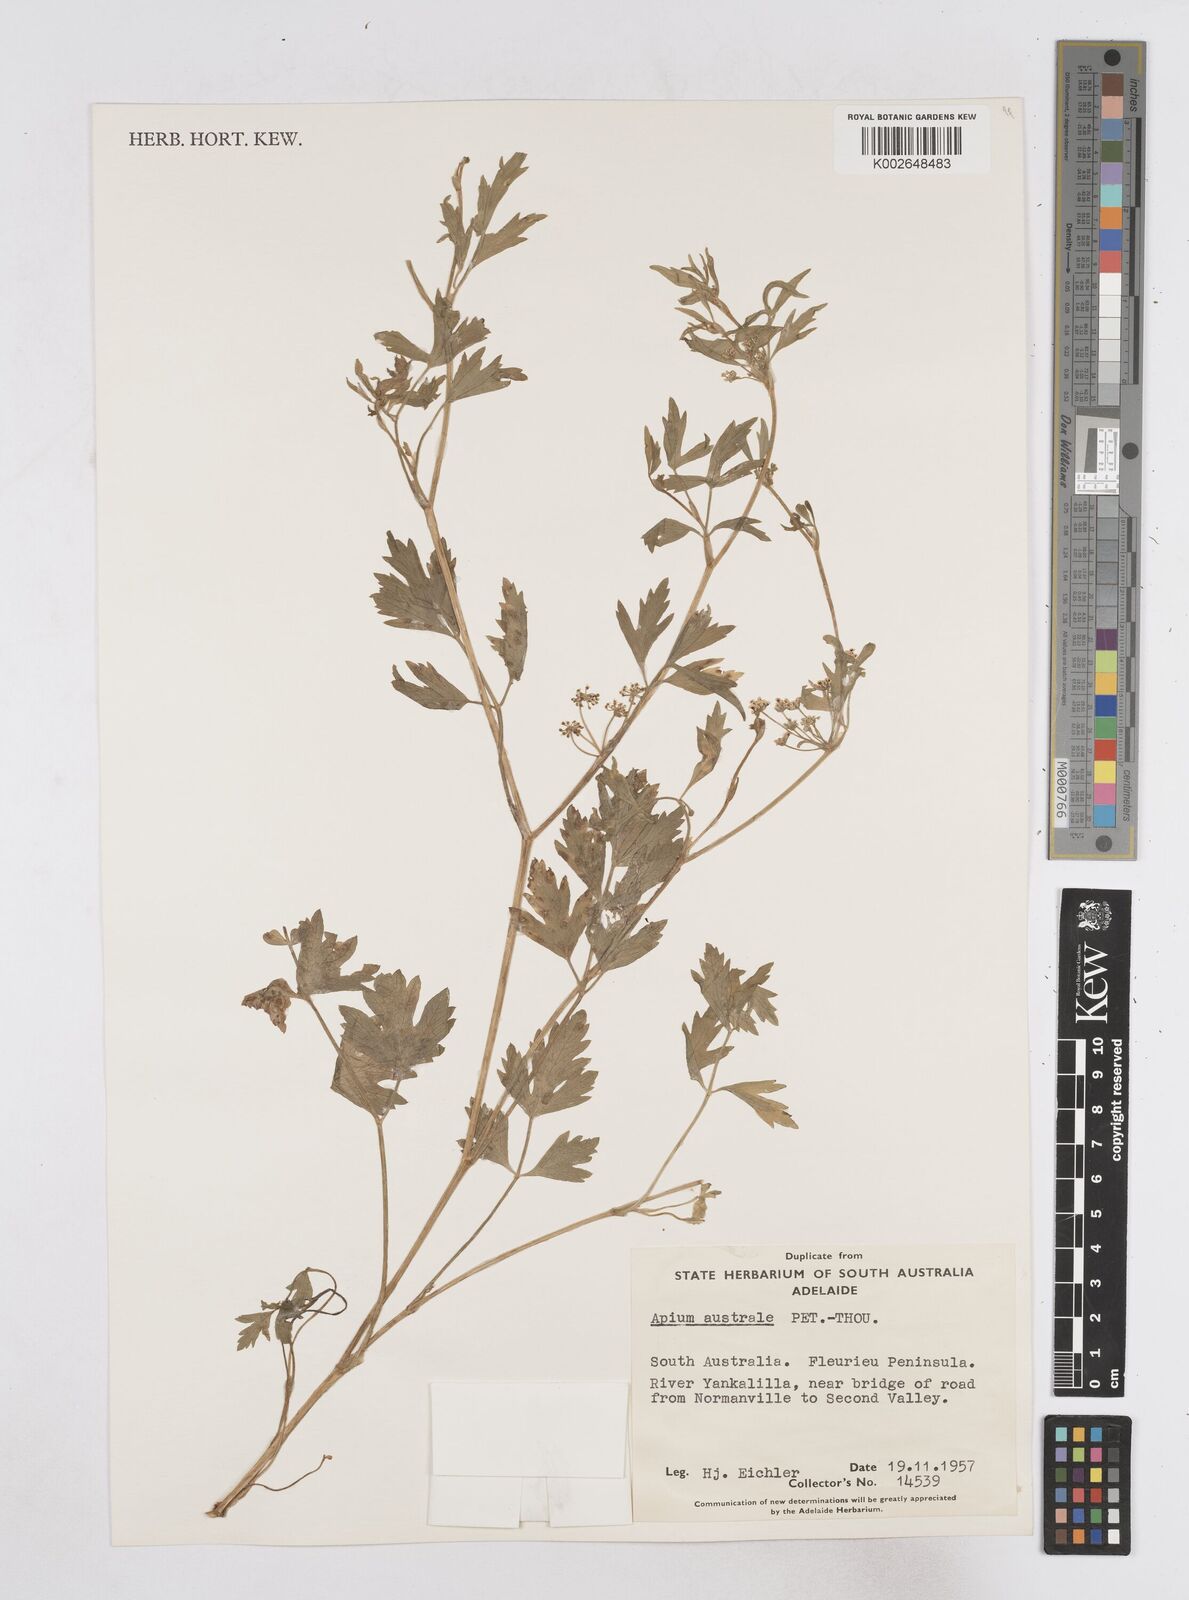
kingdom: Plantae
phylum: Tracheophyta
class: Magnoliopsida
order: Apiales
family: Apiaceae
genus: Apium
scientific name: Apium prostratum
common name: Prostrate marshwort
